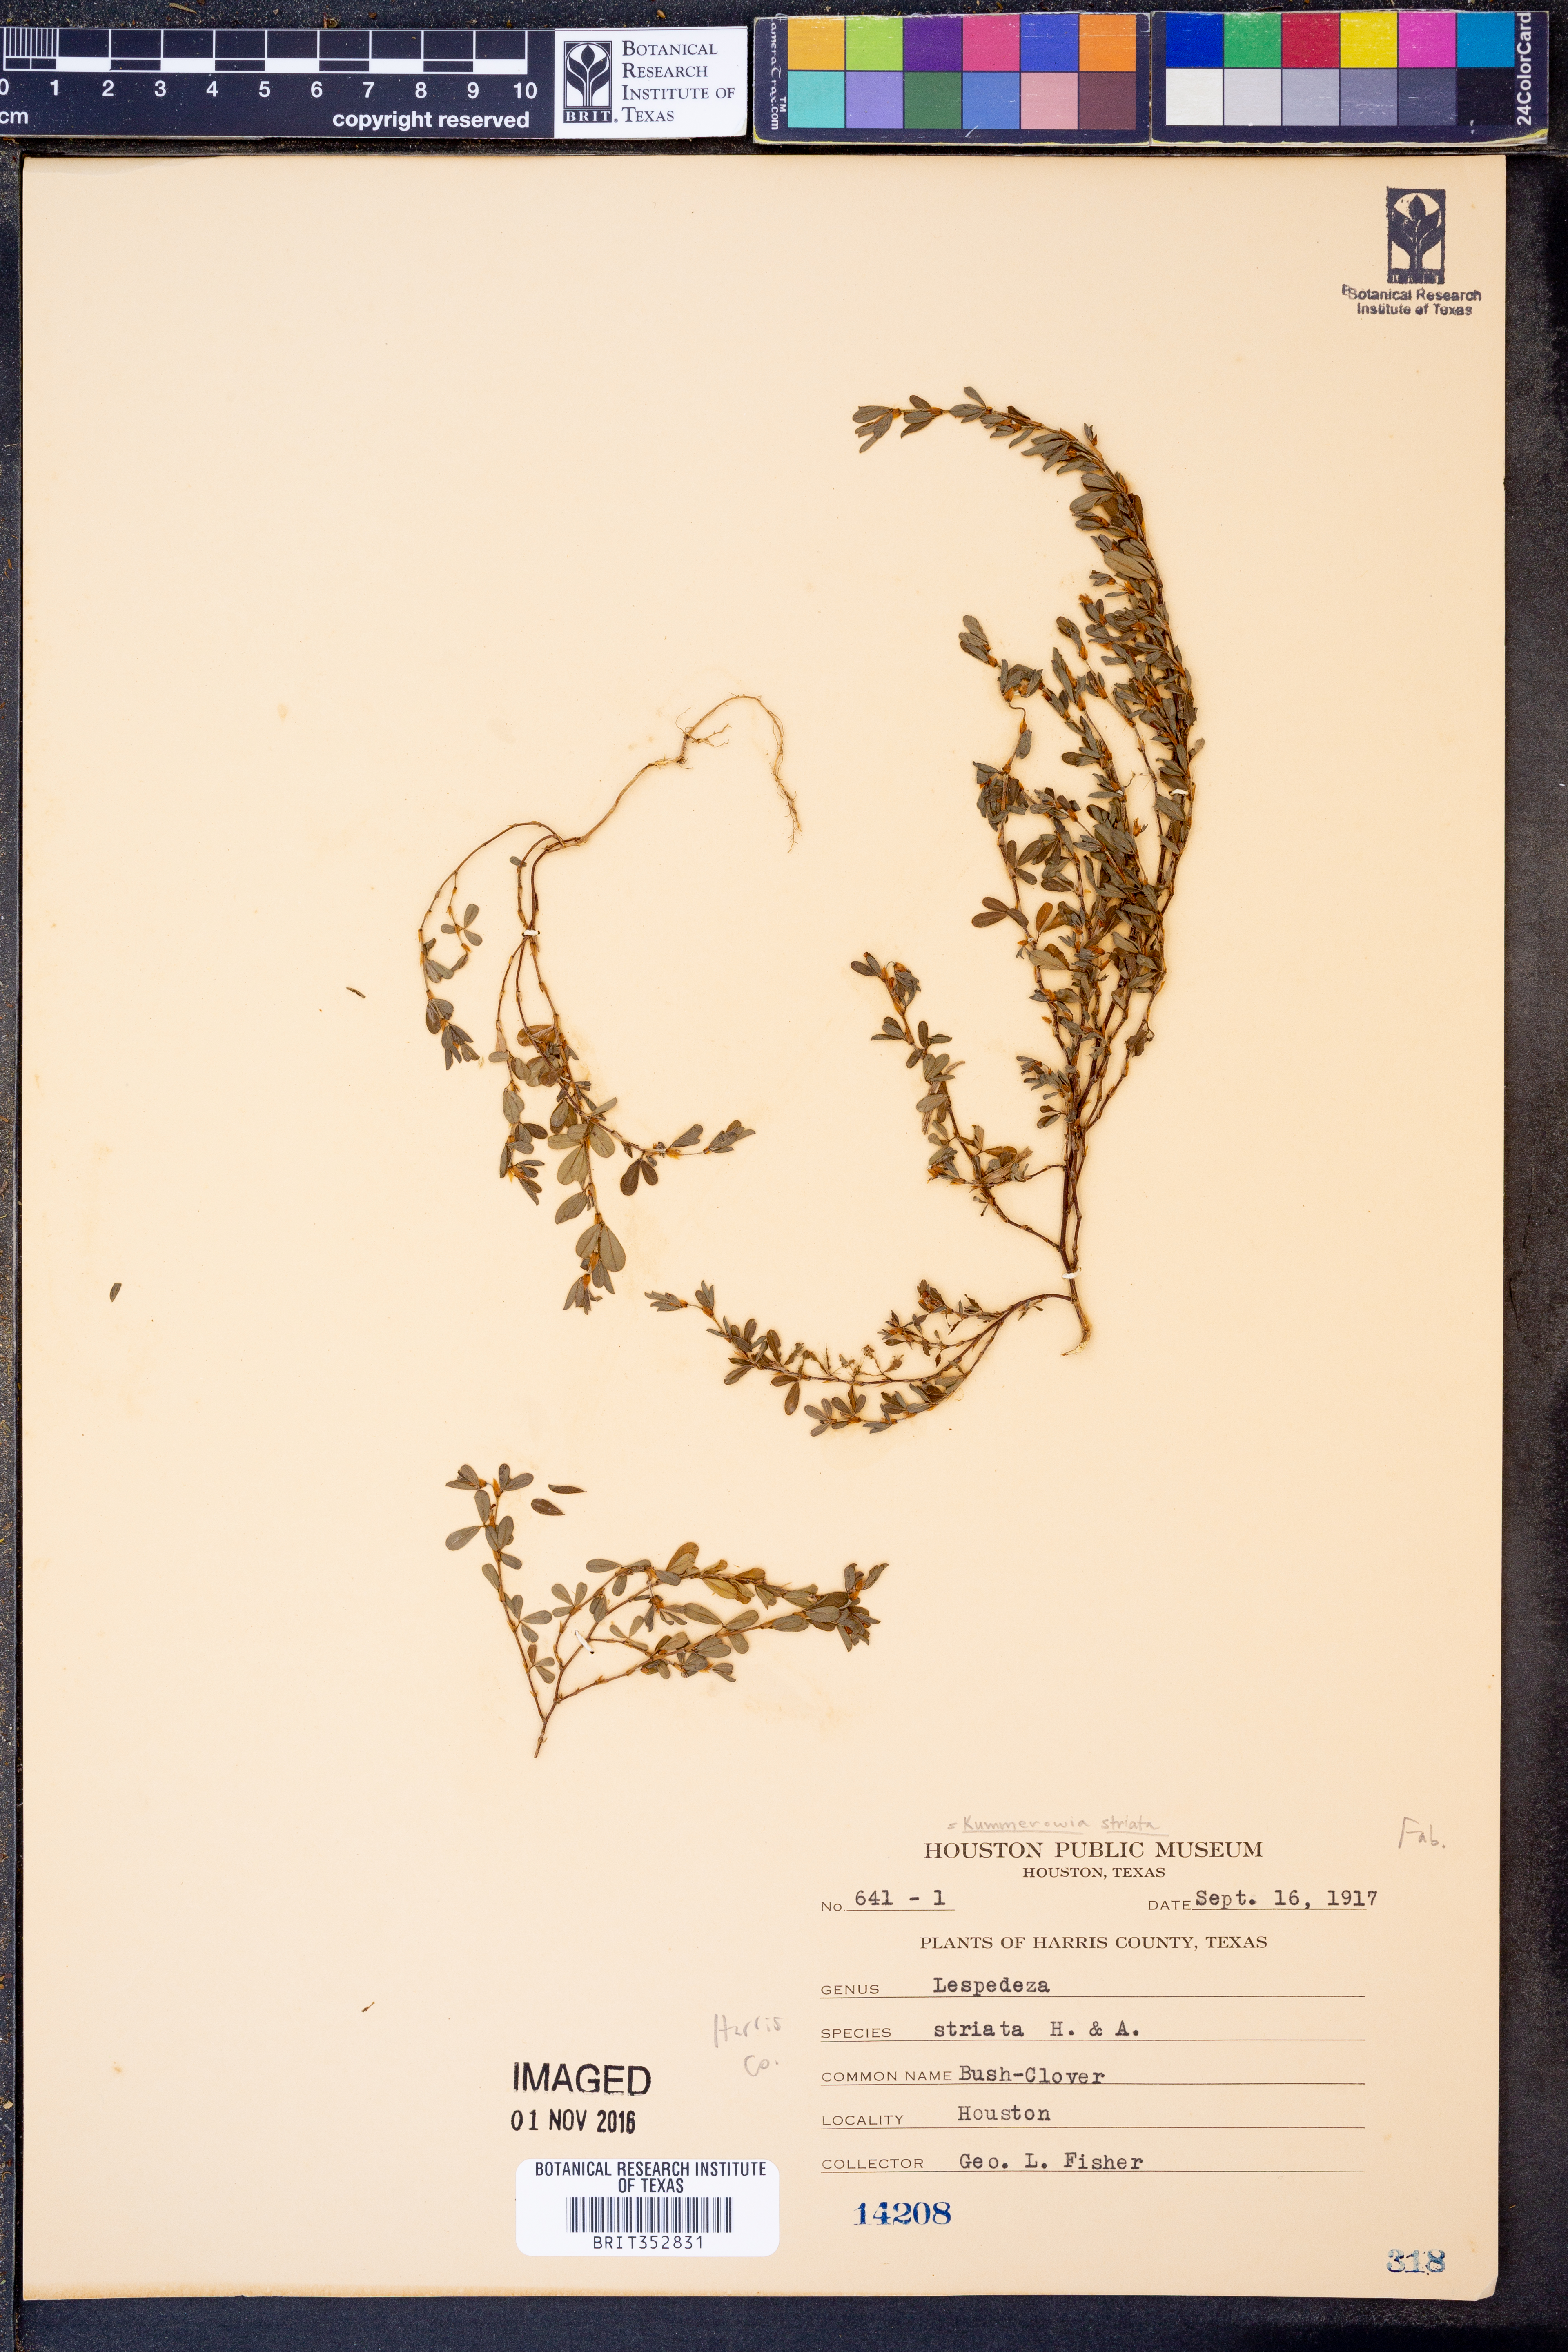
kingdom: Plantae
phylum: Tracheophyta
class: Magnoliopsida
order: Fabales
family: Fabaceae
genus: Kummerowia
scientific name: Kummerowia striata
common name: Japanese clover
